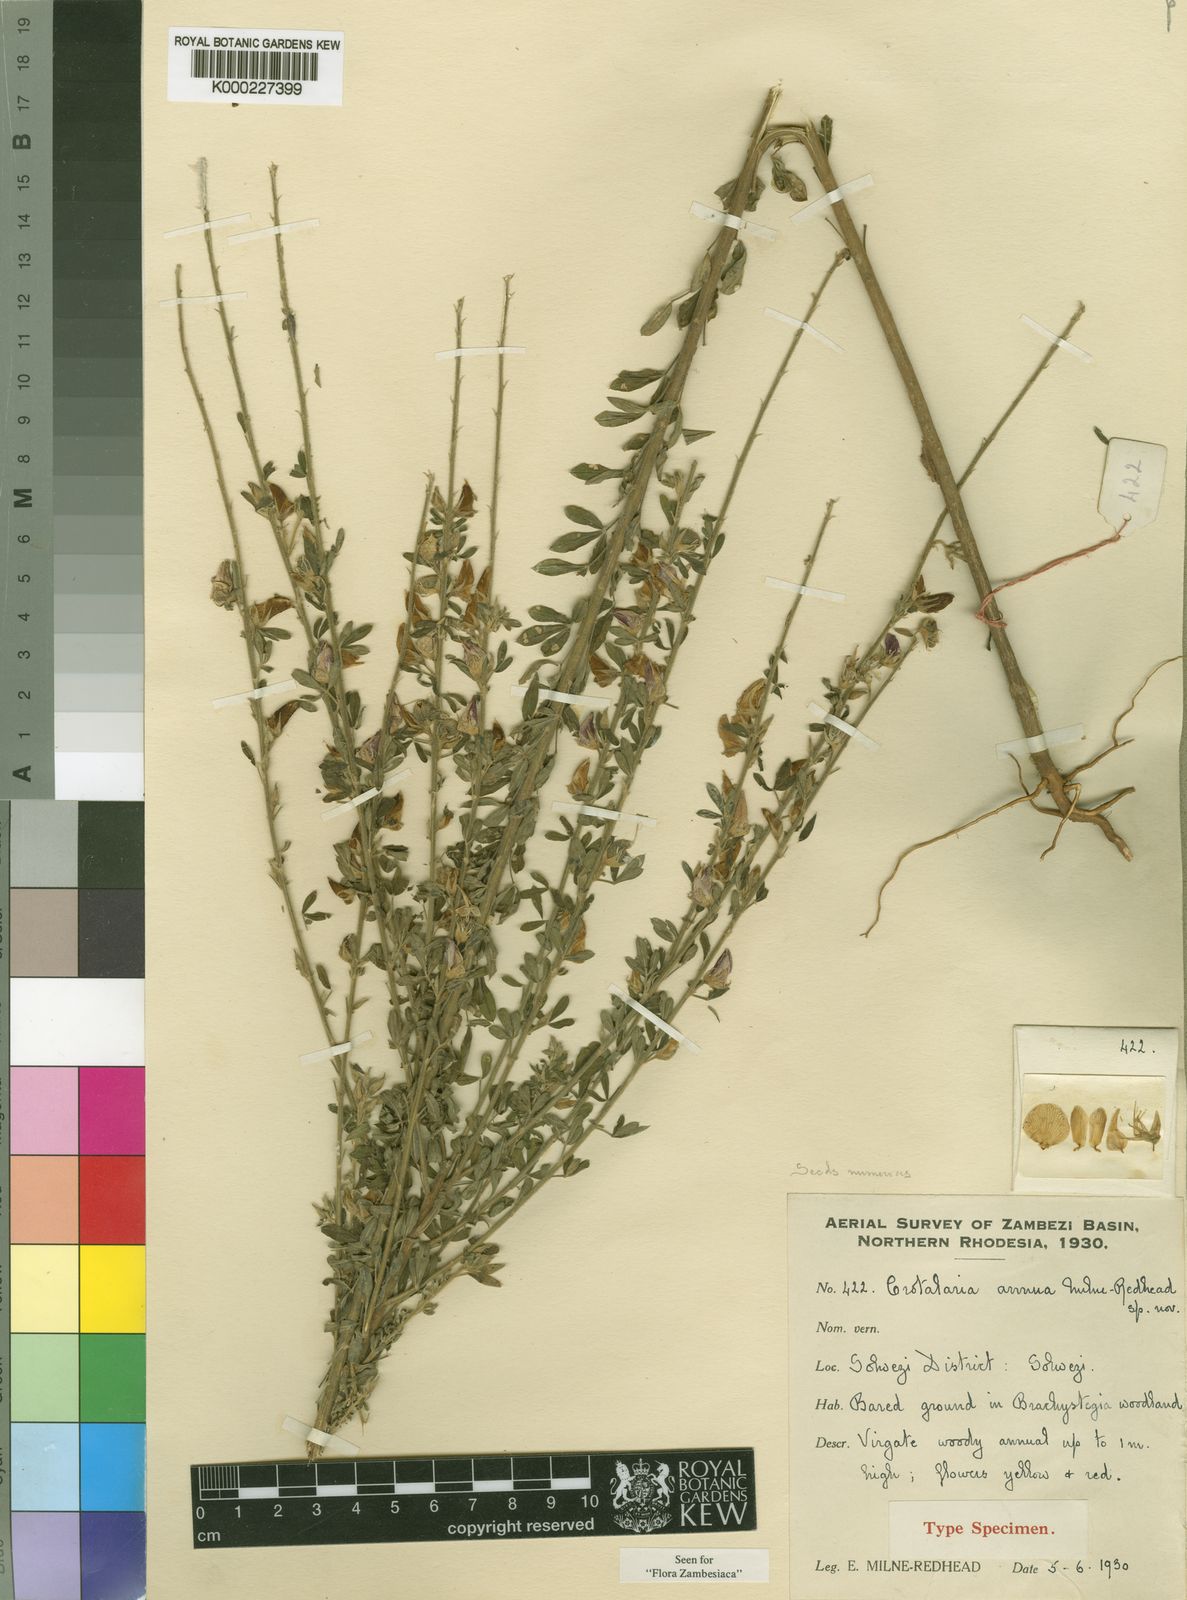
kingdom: Plantae
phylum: Tracheophyta
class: Magnoliopsida
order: Fabales
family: Fabaceae
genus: Crotalaria
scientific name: Crotalaria annua
